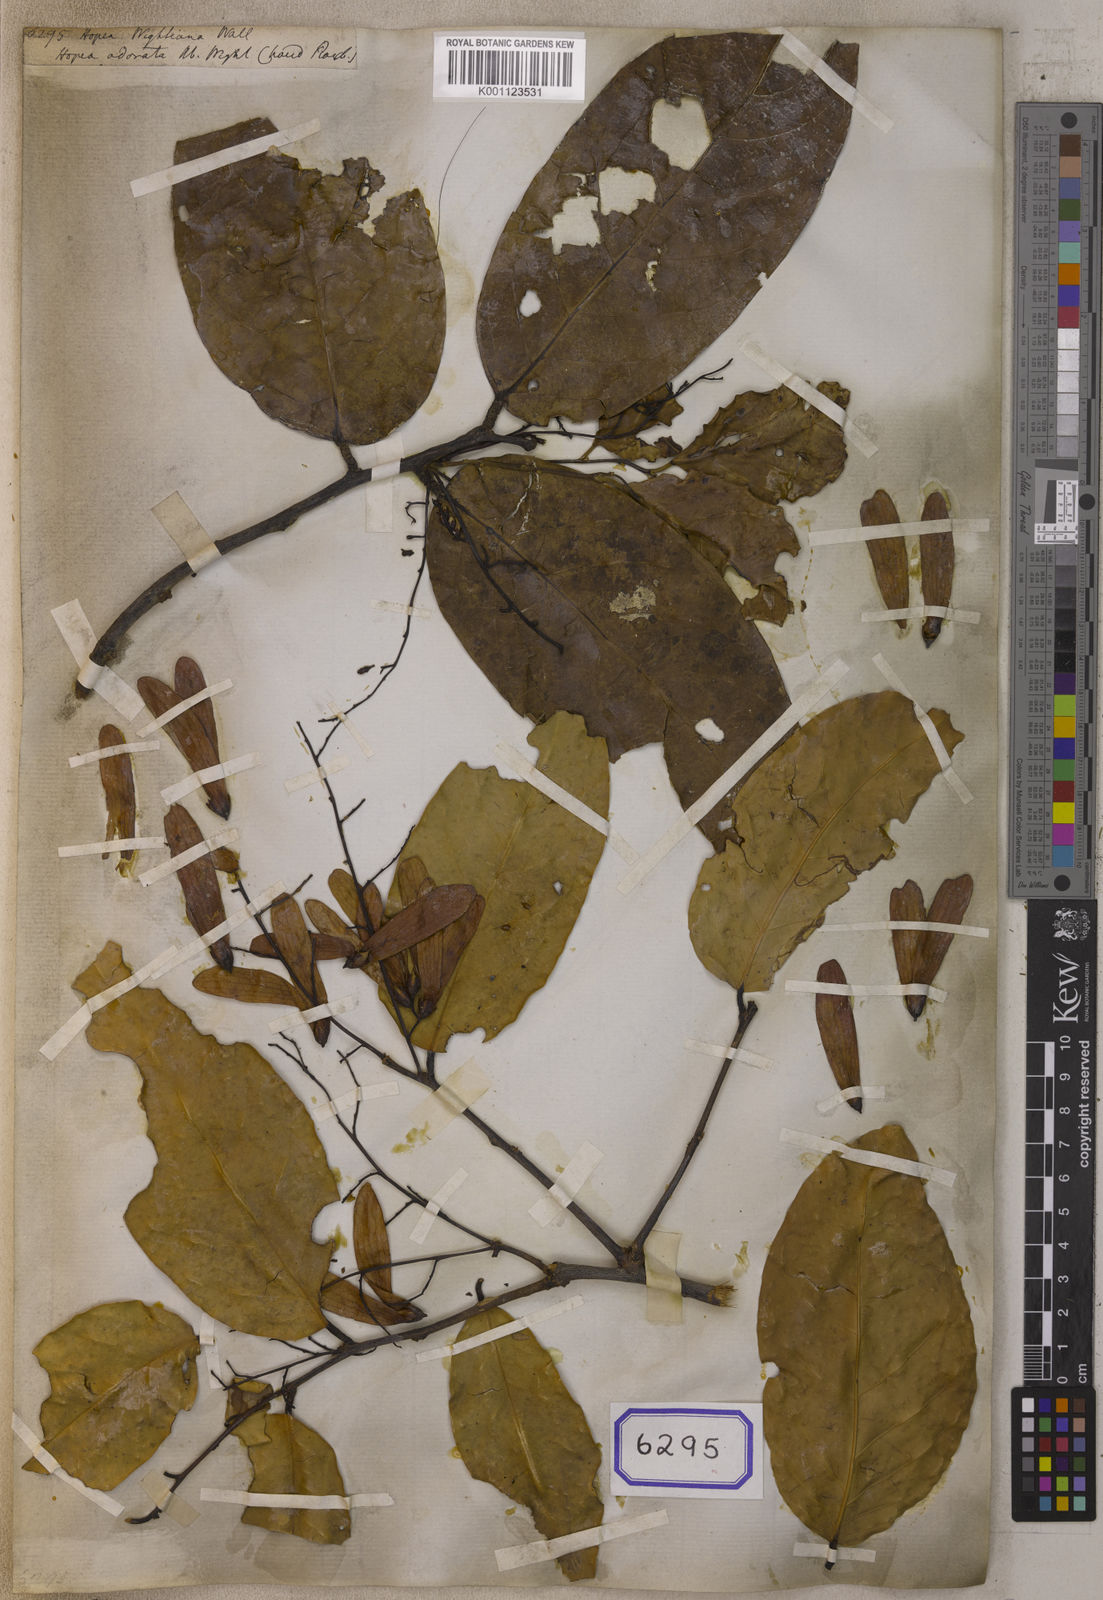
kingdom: Plantae
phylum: Tracheophyta
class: Magnoliopsida
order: Malvales
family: Dipterocarpaceae
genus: Hopea
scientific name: Hopea
